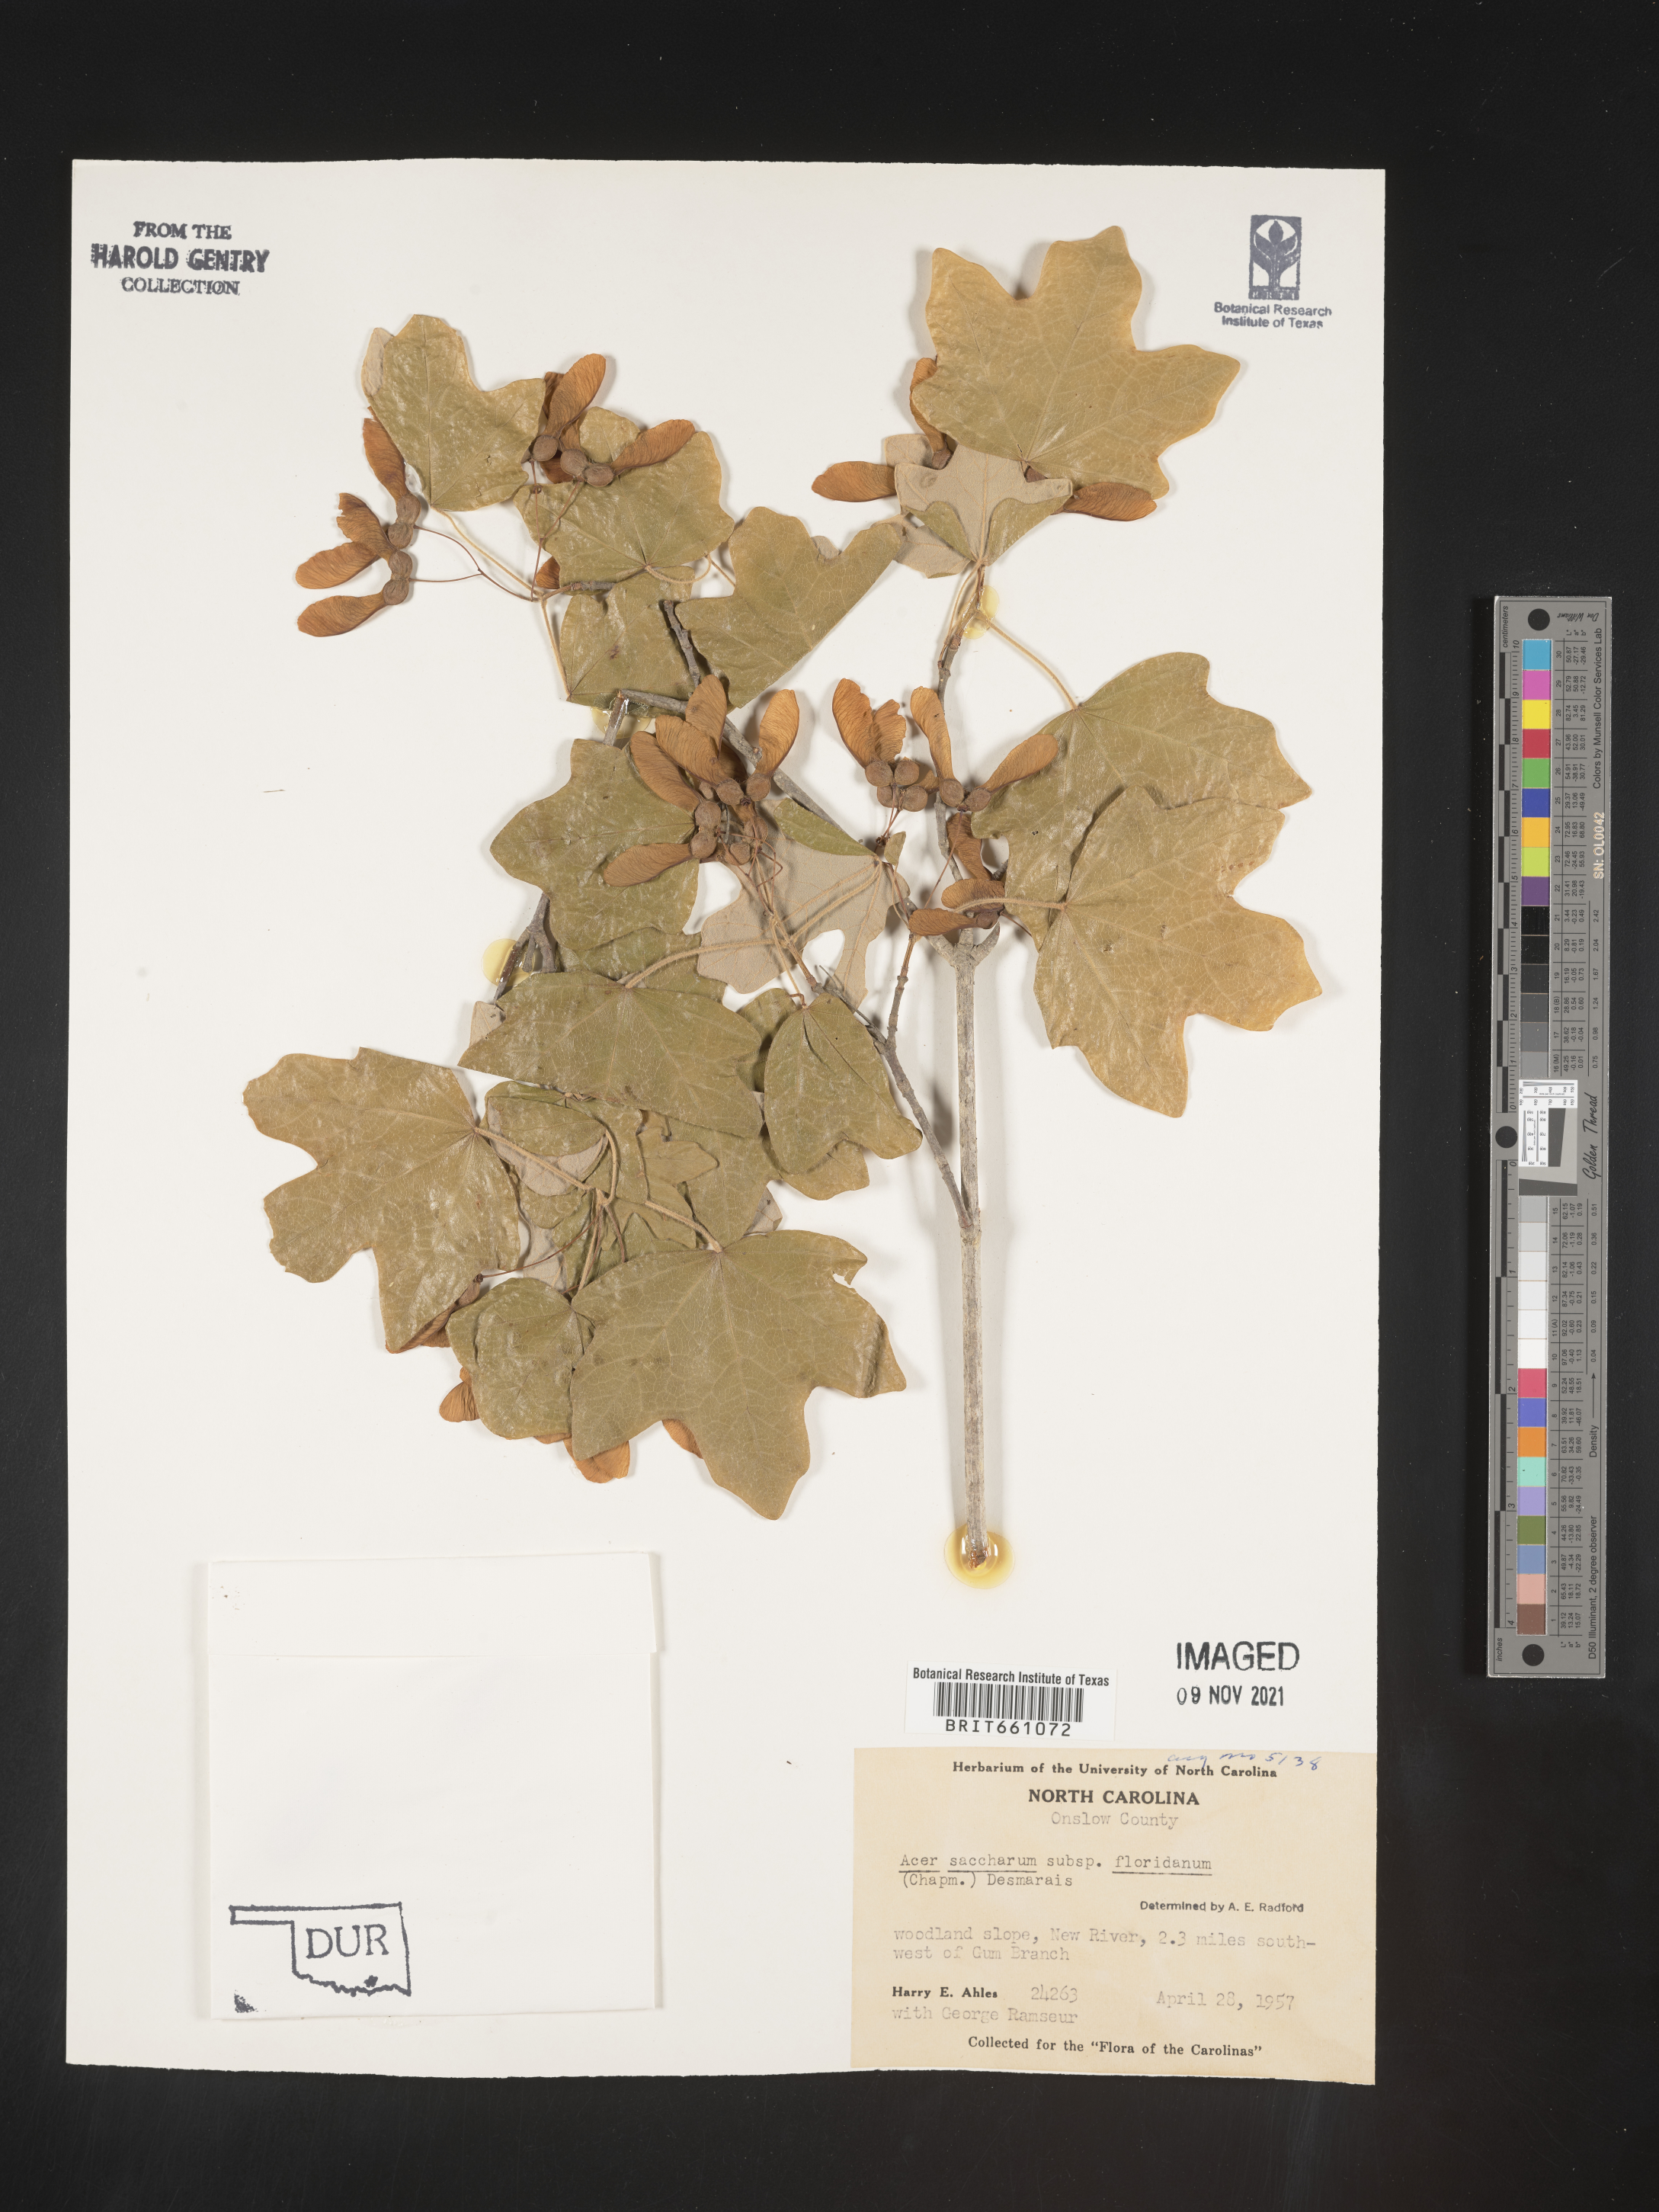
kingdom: Plantae
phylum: Tracheophyta
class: Magnoliopsida
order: Sapindales
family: Sapindaceae
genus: Acer
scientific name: Acer barbatum
